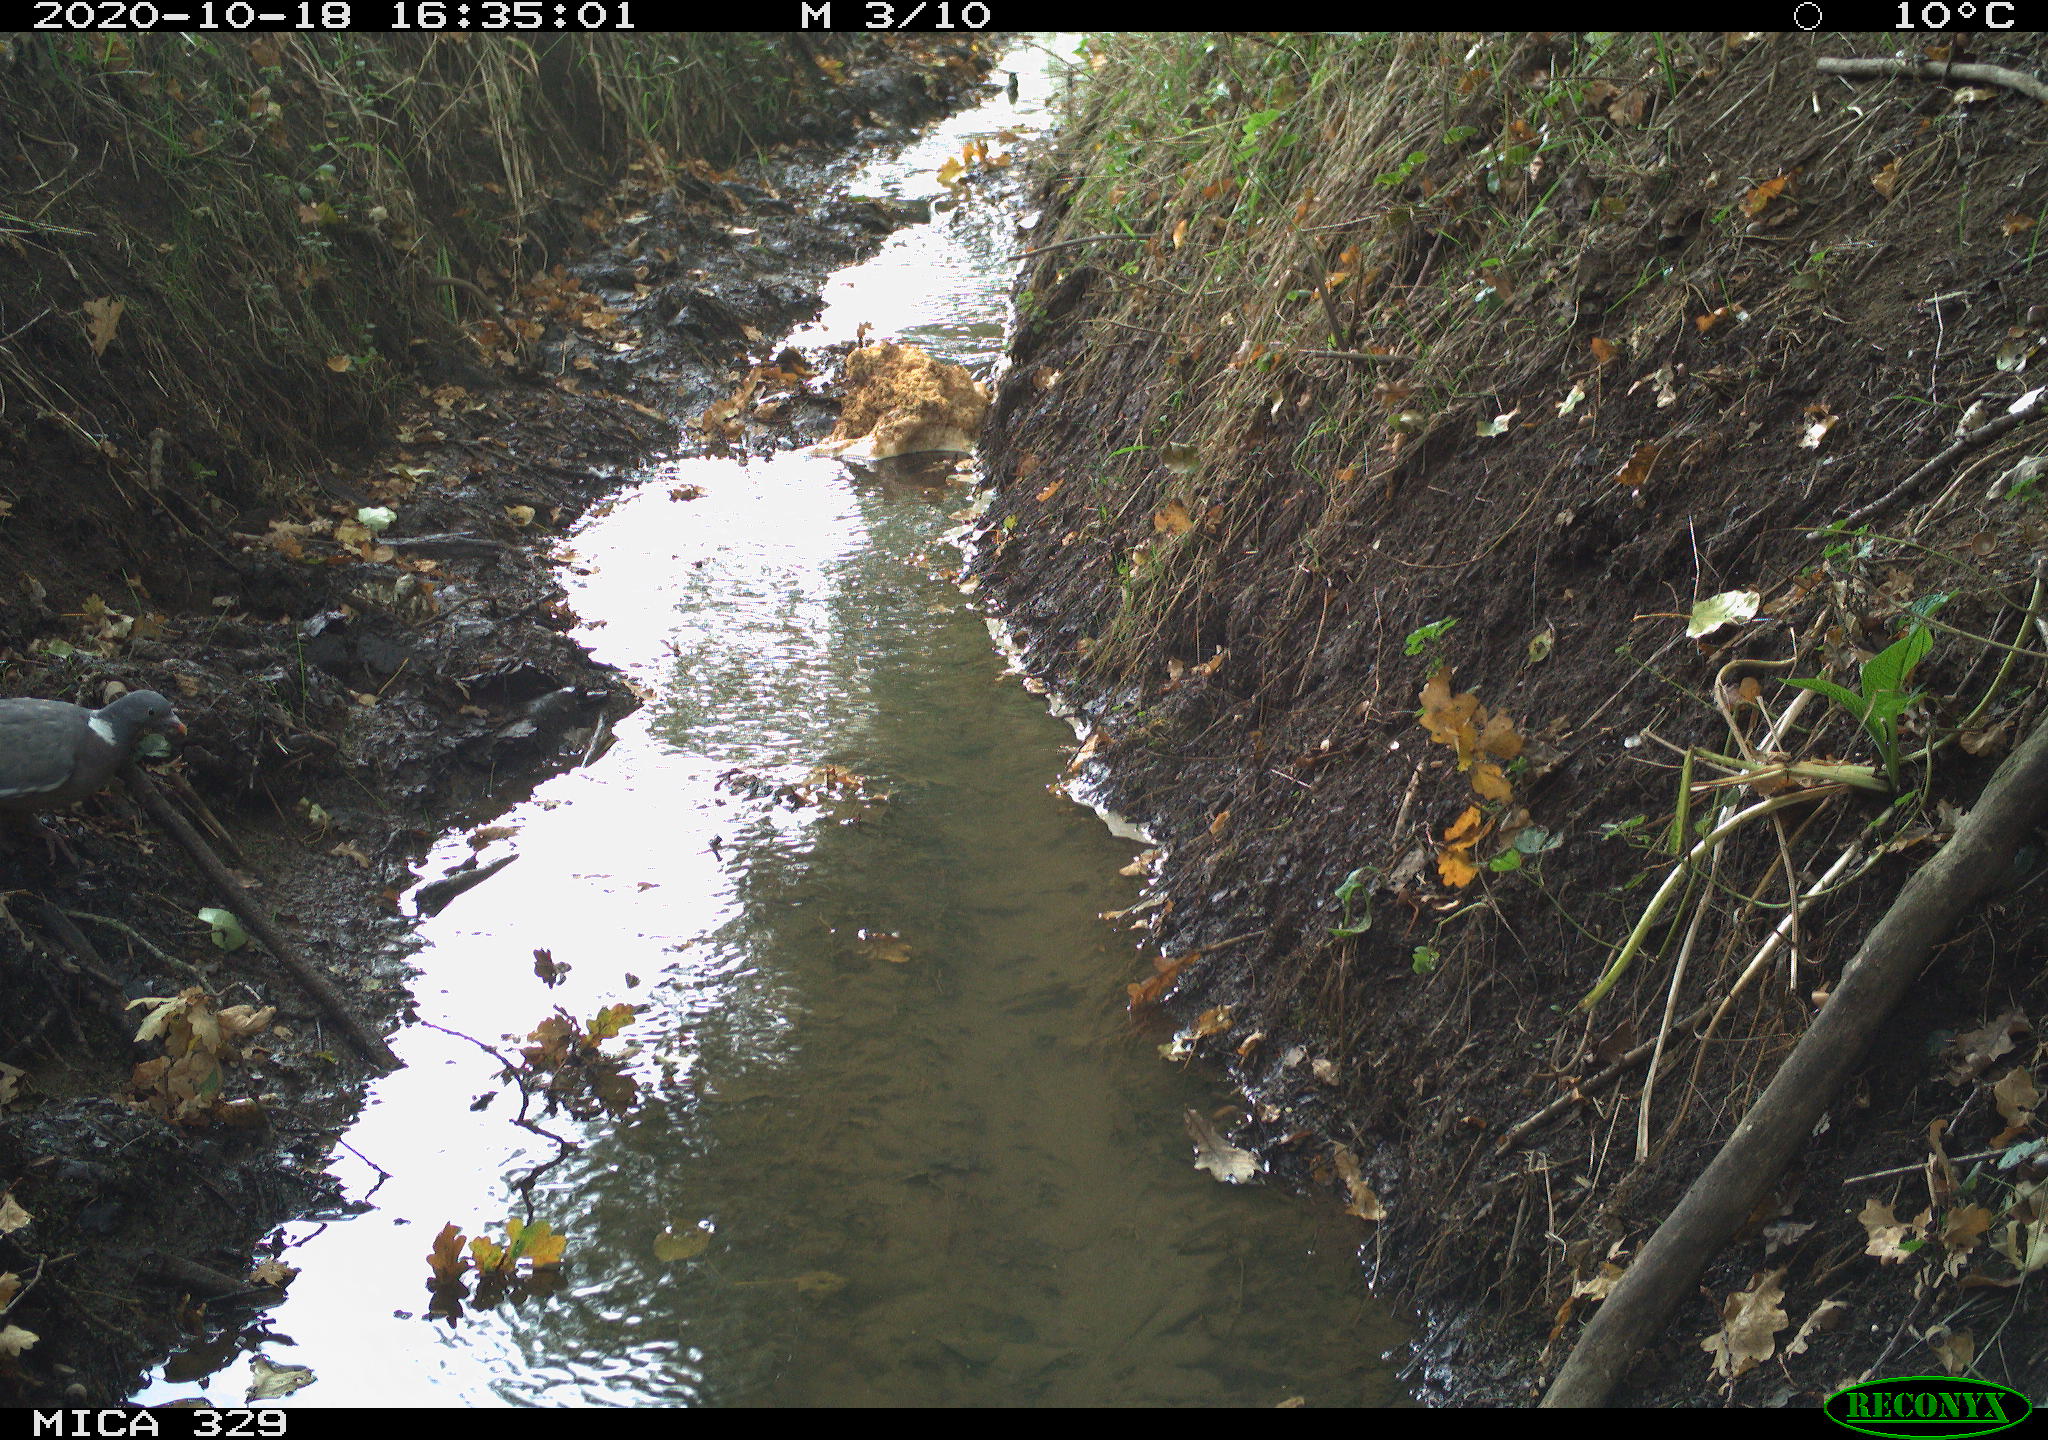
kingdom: Animalia
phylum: Chordata
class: Aves
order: Columbiformes
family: Columbidae
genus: Columba
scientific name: Columba palumbus
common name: Common wood pigeon
